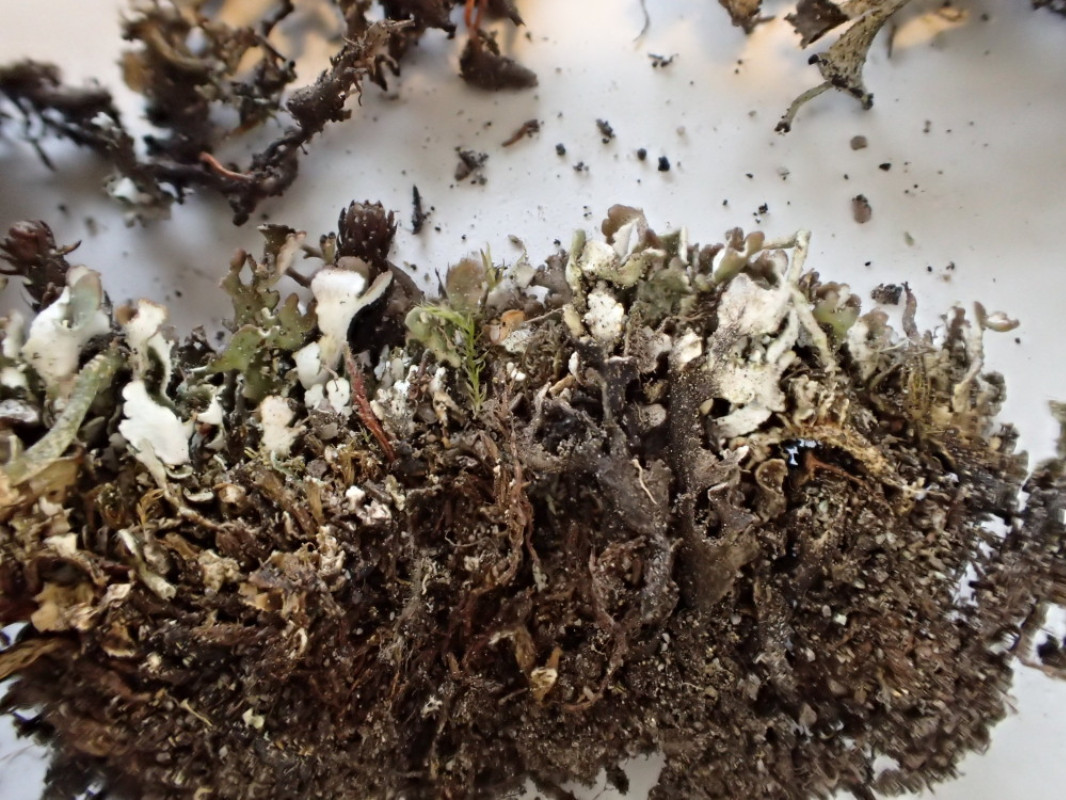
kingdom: Fungi
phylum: Ascomycota
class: Lecanoromycetes
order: Lecanorales
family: Cladoniaceae
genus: Cladonia
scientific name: Cladonia cervicornis
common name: gevir-bægerlav
